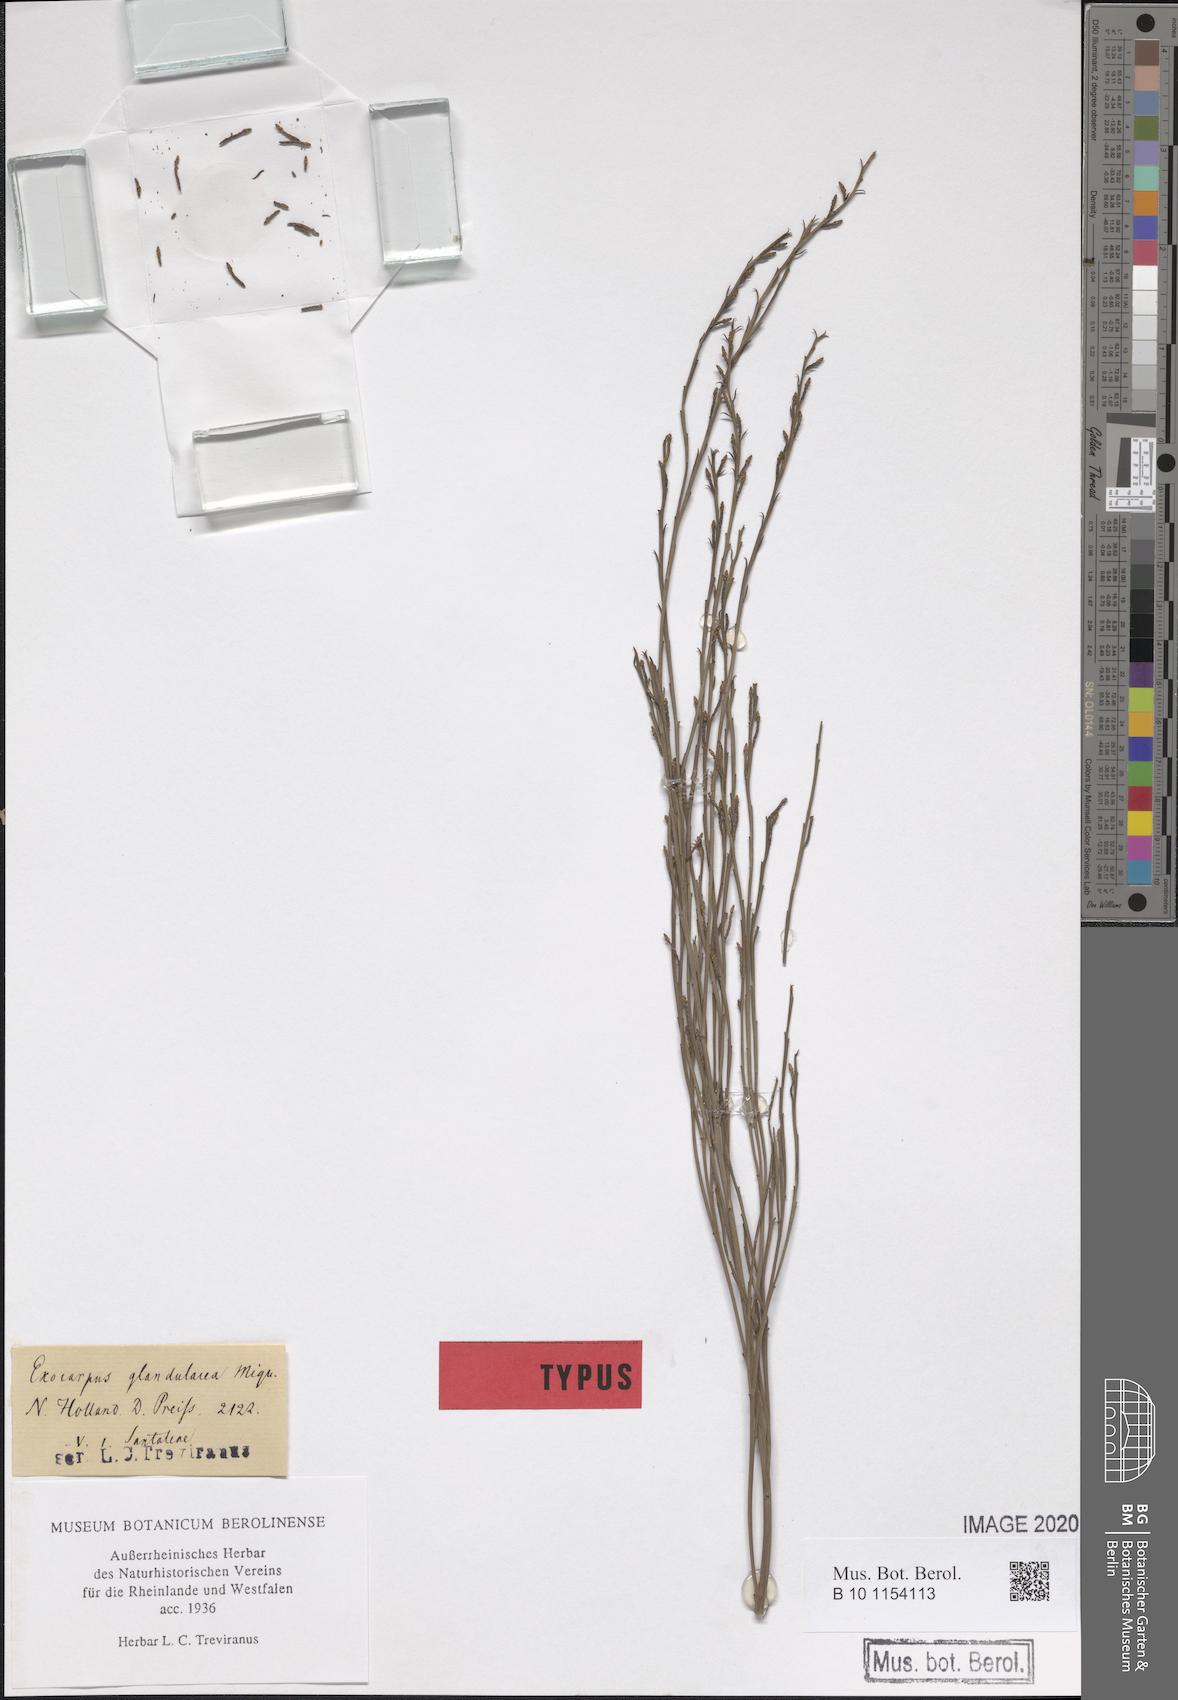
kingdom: Plantae
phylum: Tracheophyta
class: Magnoliopsida
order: Santalales
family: Santalaceae
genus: Exocarpos
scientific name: Exocarpos sparteus
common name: Broom ballart
